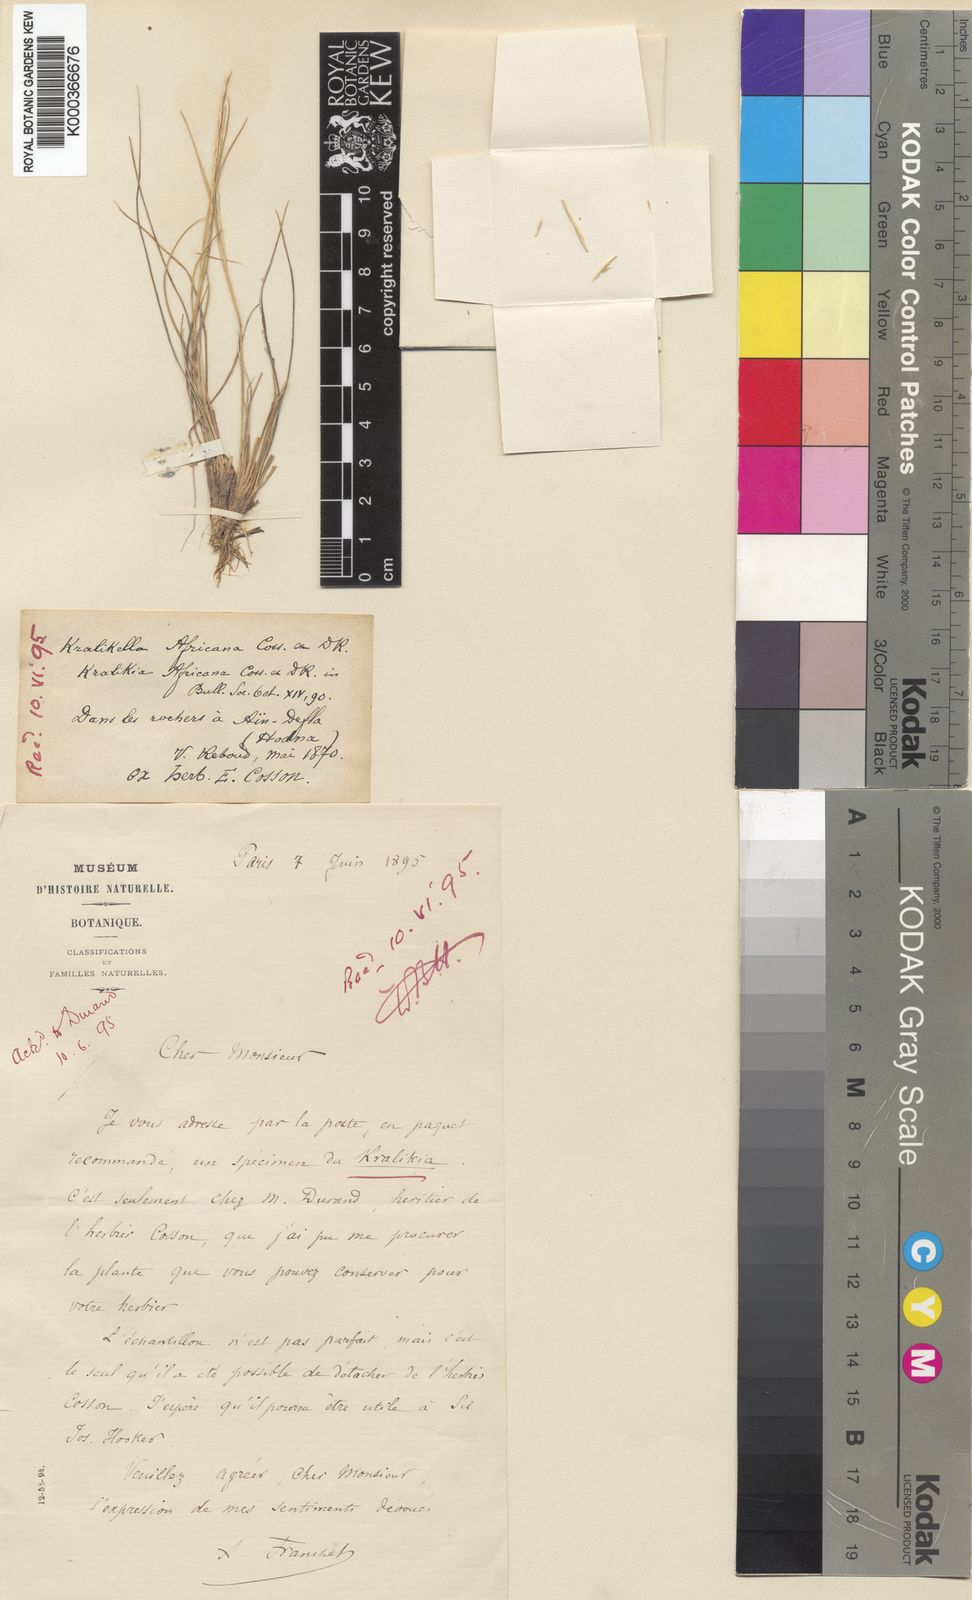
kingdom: Plantae
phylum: Tracheophyta
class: Liliopsida
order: Poales
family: Poaceae
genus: Tripogon
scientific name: Tripogon
